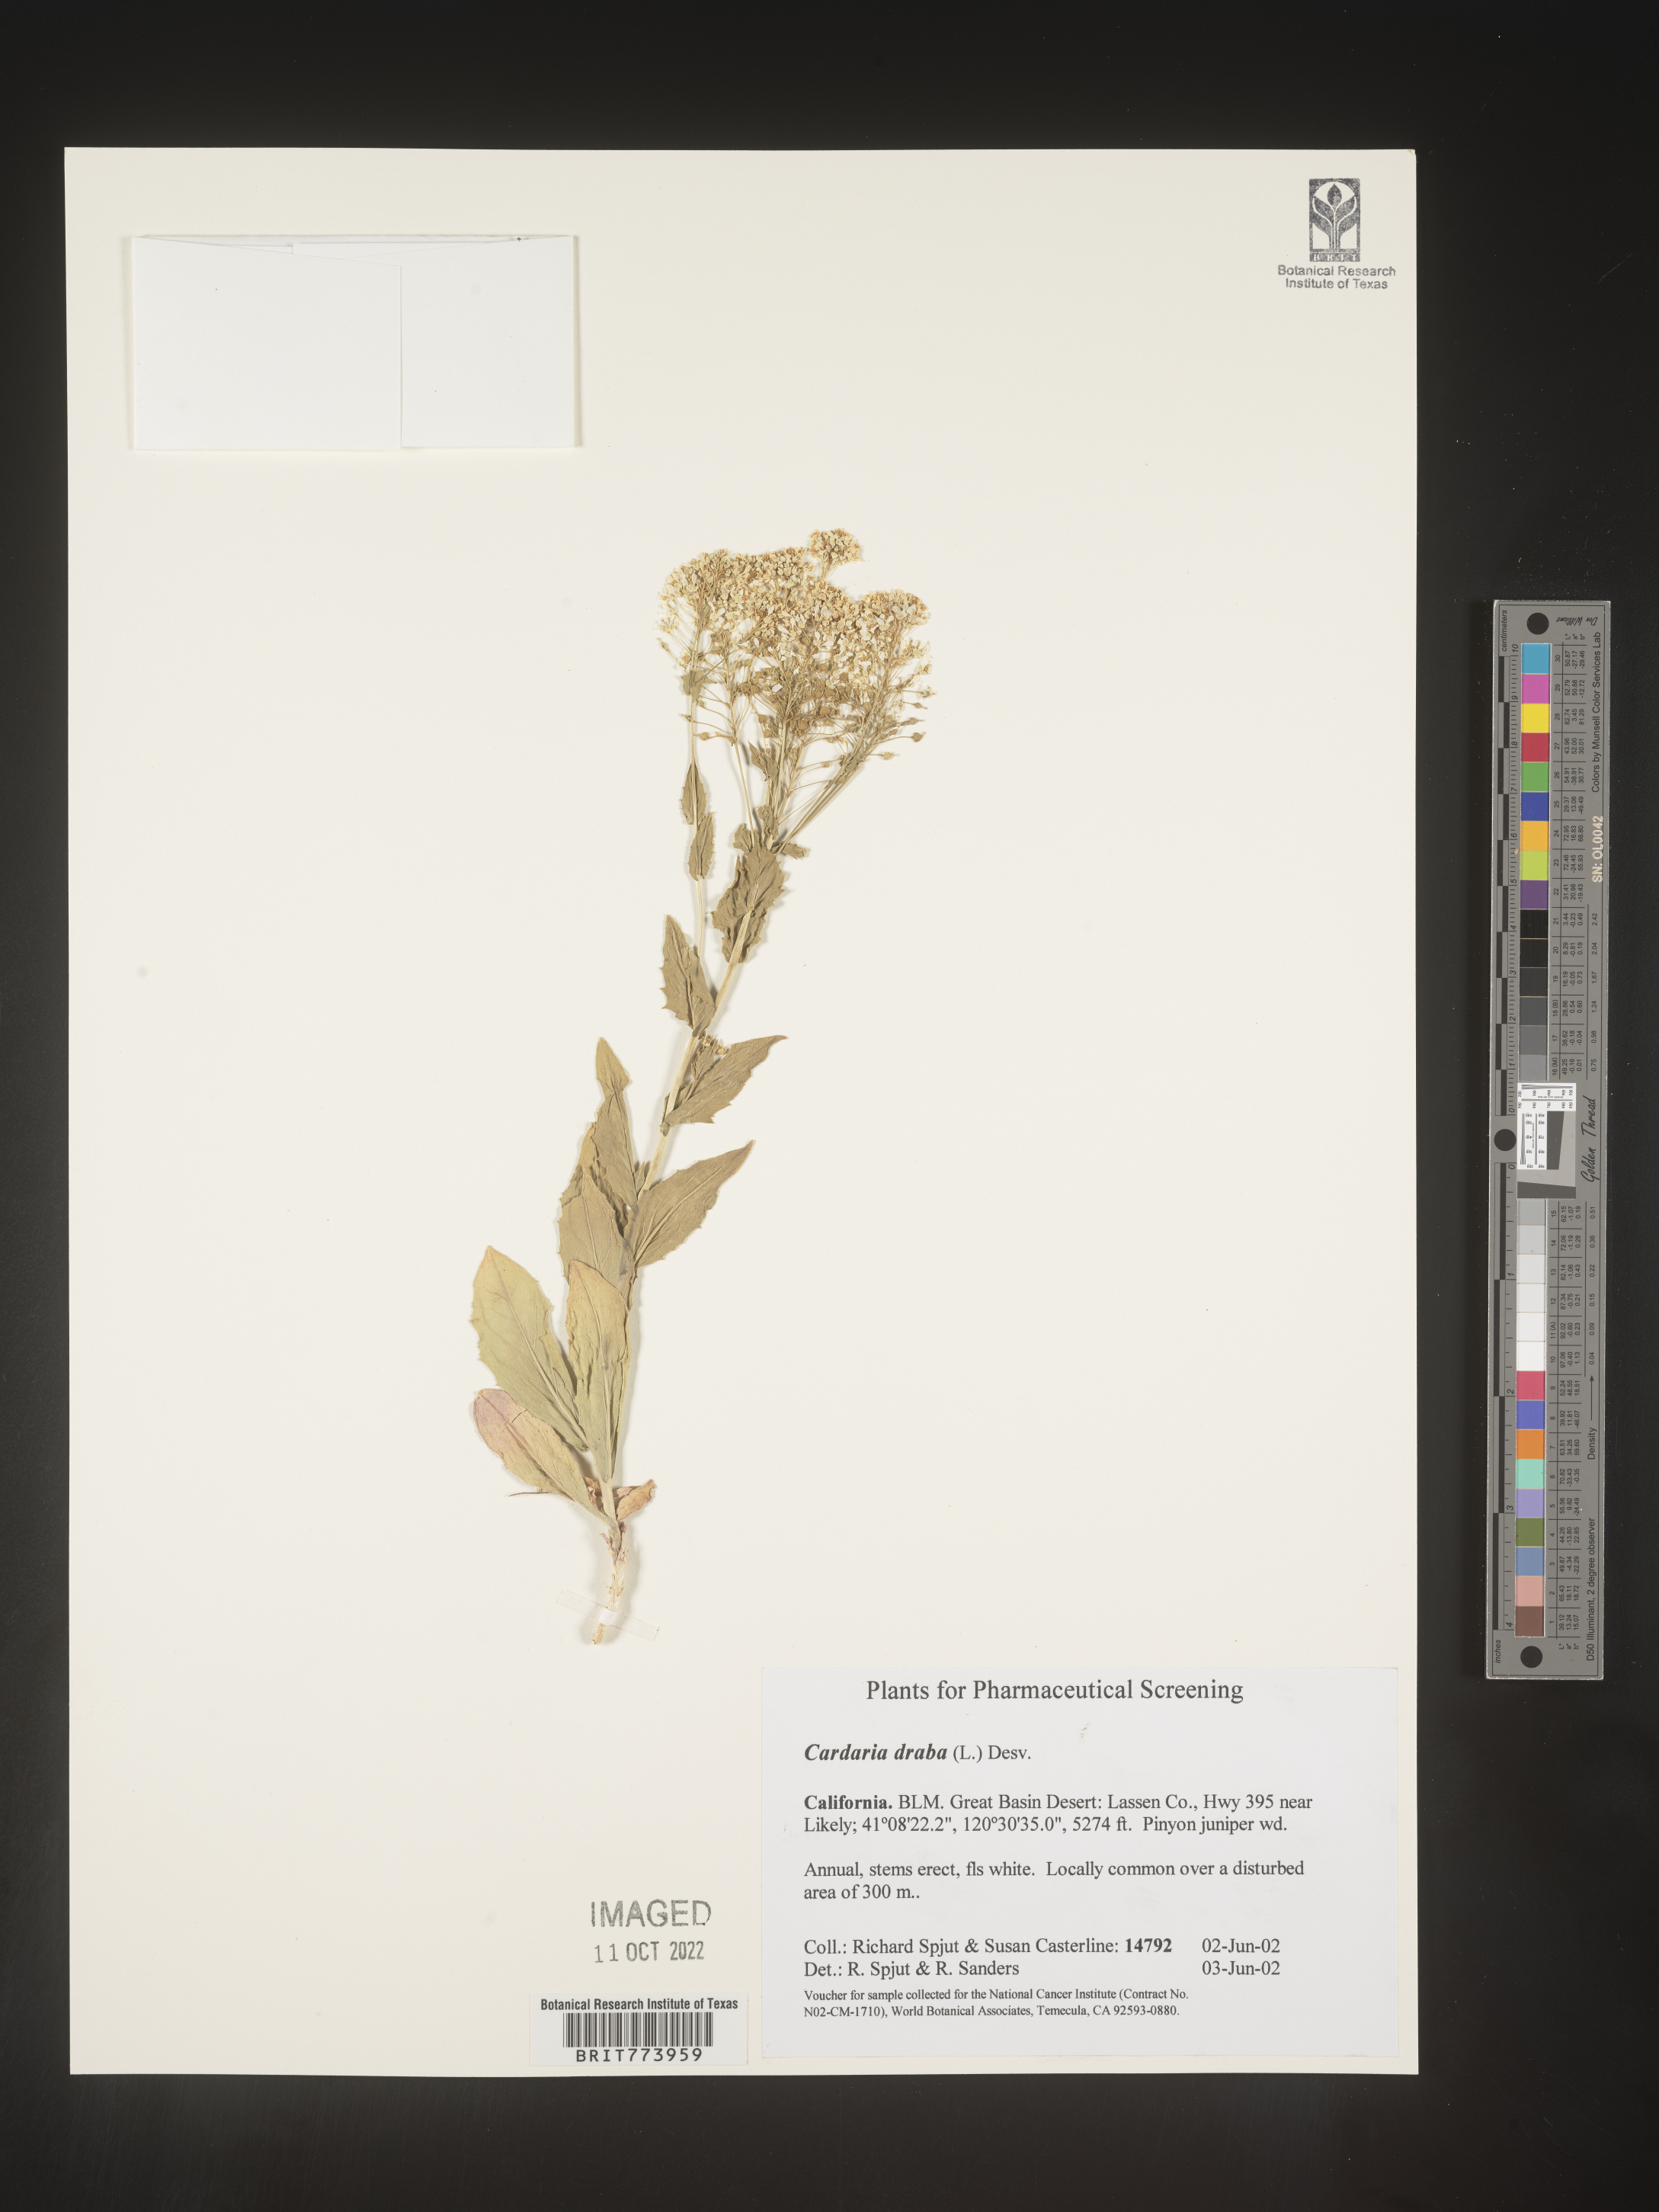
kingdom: Plantae
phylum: Tracheophyta
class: Magnoliopsida
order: Brassicales
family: Brassicaceae
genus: Lepidium
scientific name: Lepidium draba
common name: Hoary cress
